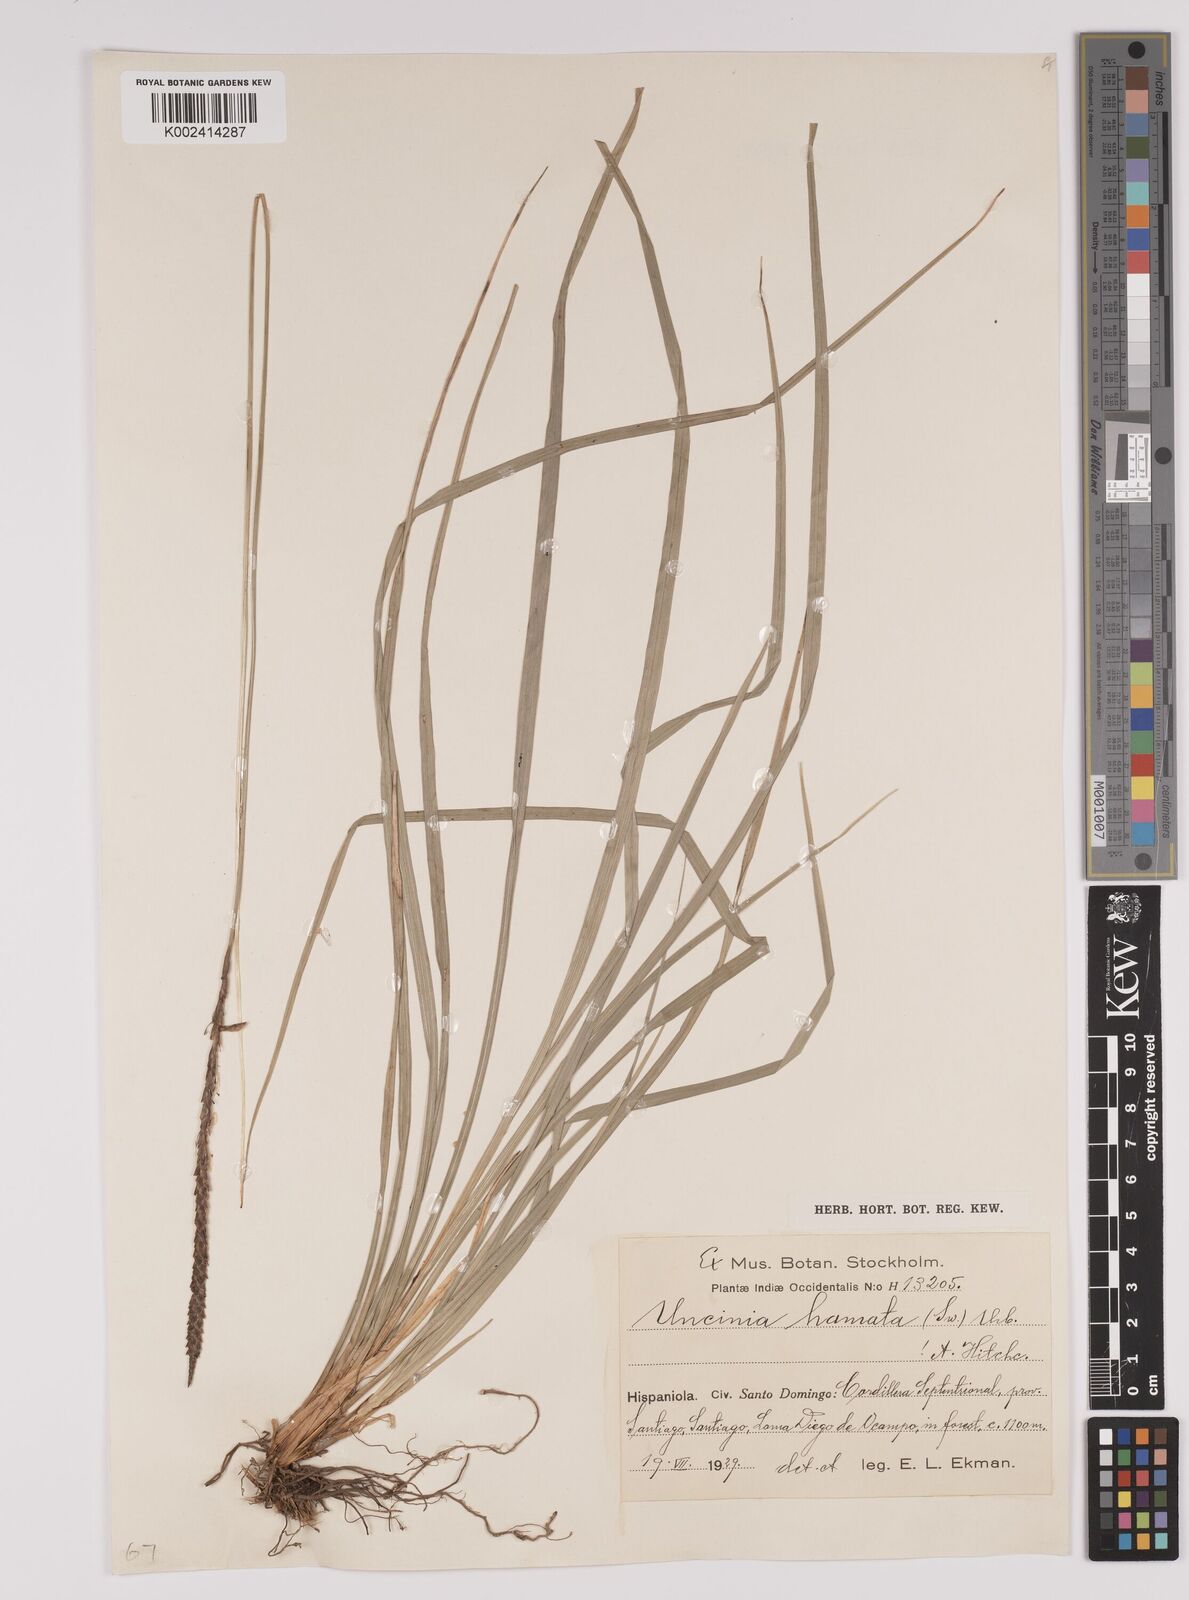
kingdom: Plantae
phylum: Tracheophyta
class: Liliopsida
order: Poales
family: Cyperaceae
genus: Carex
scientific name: Carex hamata
